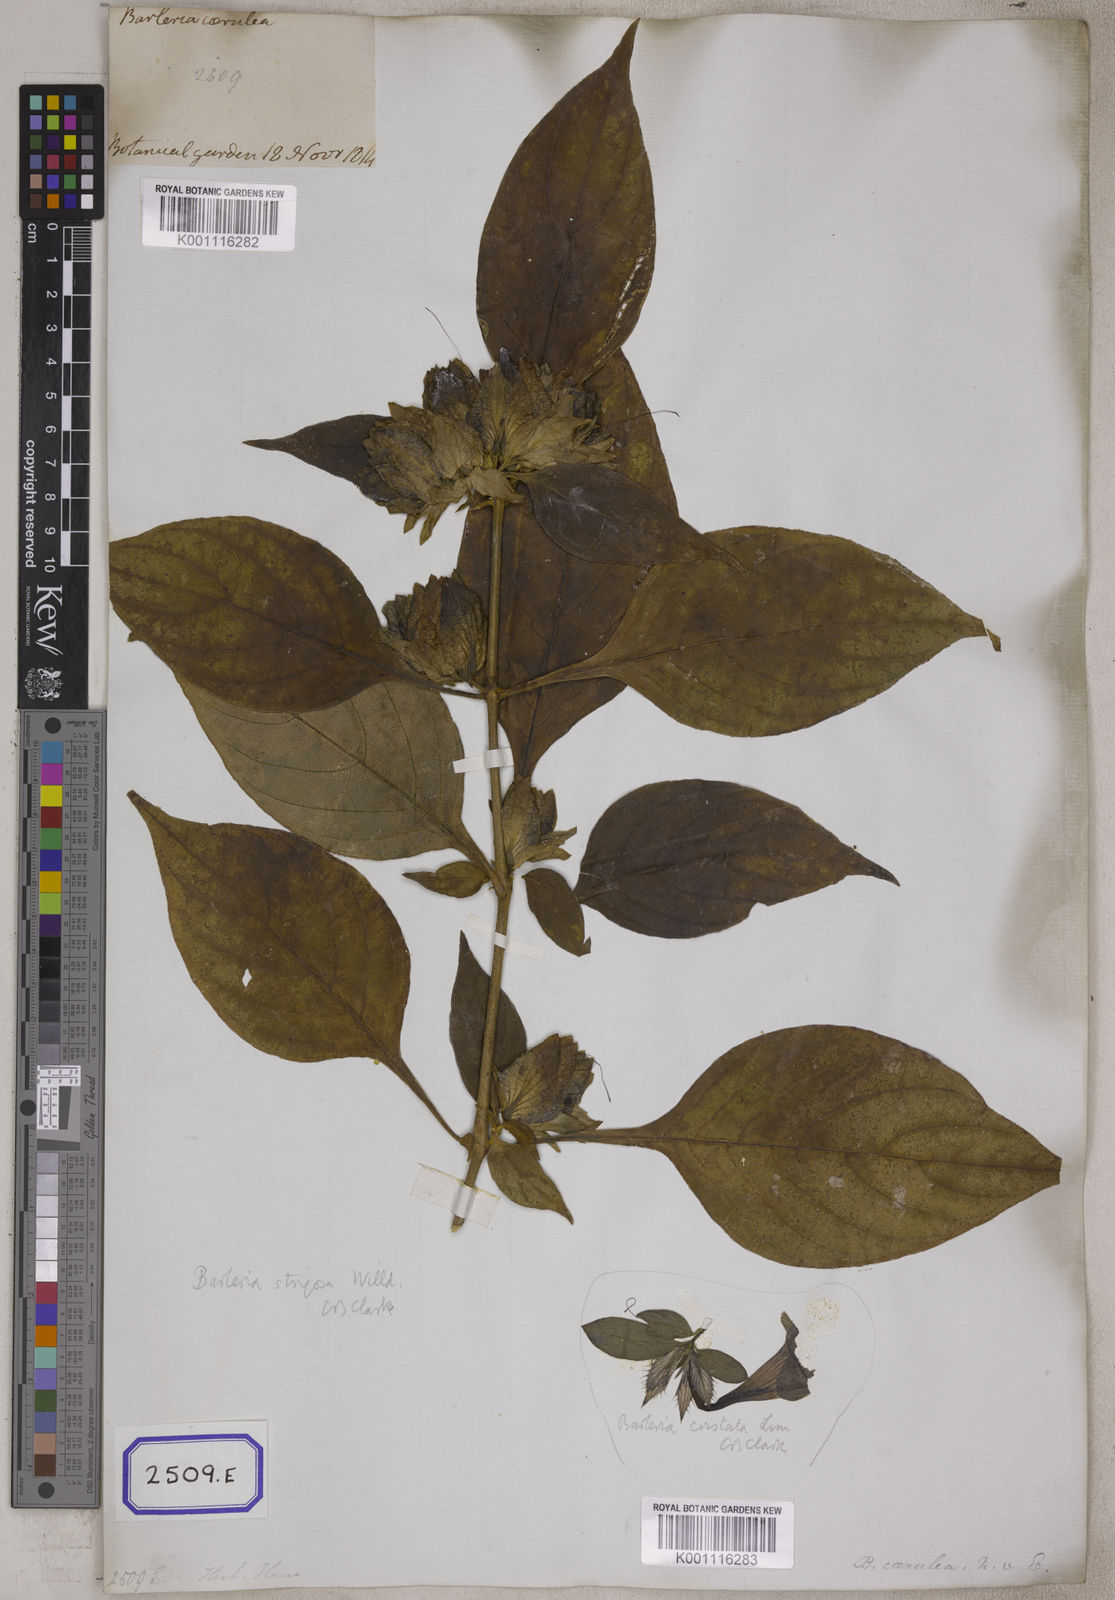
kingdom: Plantae
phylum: Tracheophyta
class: Magnoliopsida
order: Lamiales
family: Acanthaceae
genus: Barleria
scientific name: Barleria strigosa
